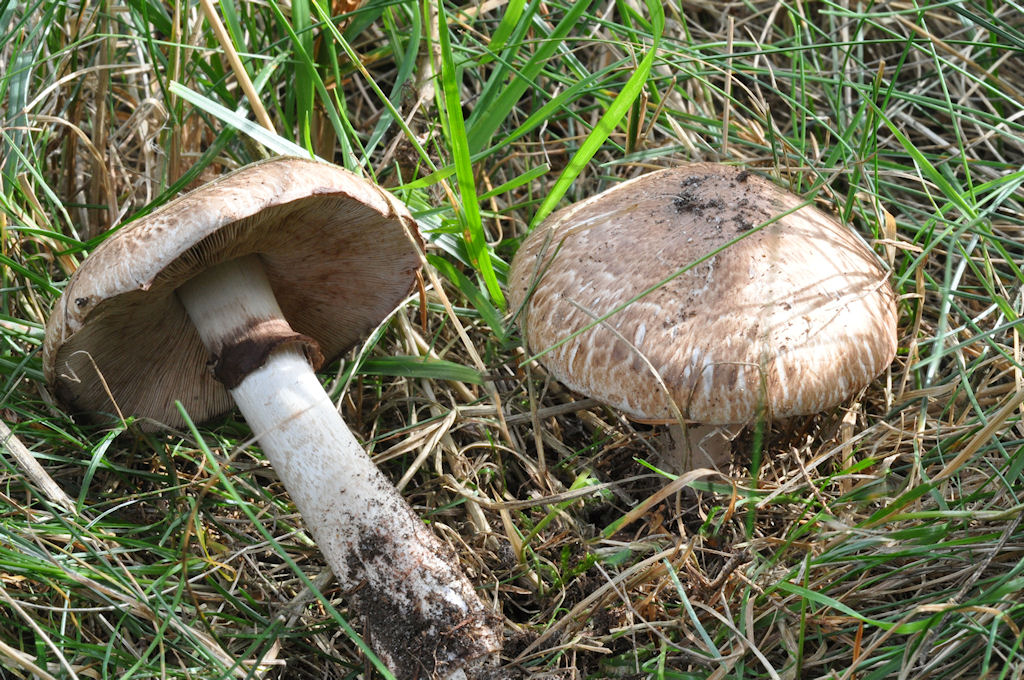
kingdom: Fungi
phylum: Basidiomycota
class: Agaricomycetes
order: Agaricales
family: Agaricaceae
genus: Agaricus
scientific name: Agaricus langei
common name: stor blod-champignon
